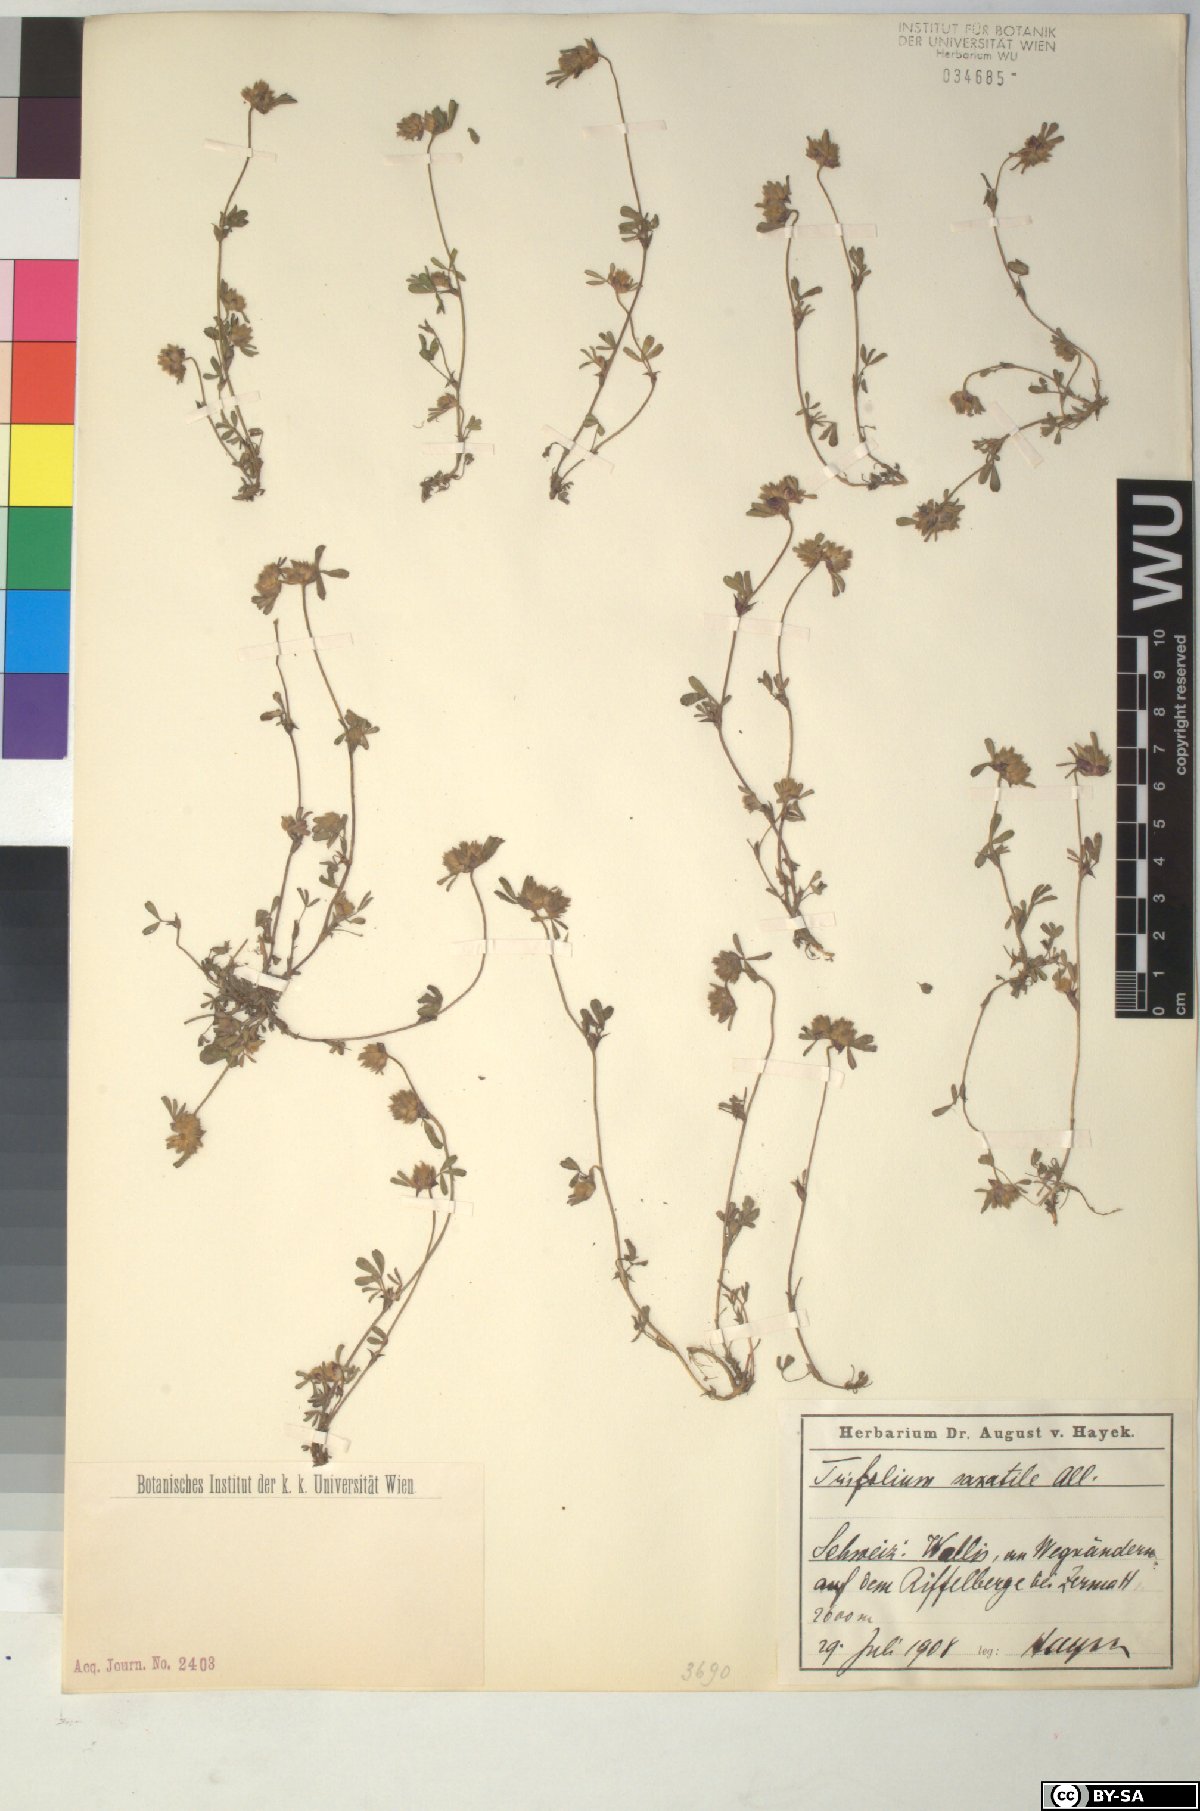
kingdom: Plantae
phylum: Tracheophyta
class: Magnoliopsida
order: Fabales
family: Fabaceae
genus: Trifolium
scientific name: Trifolium saxatile
